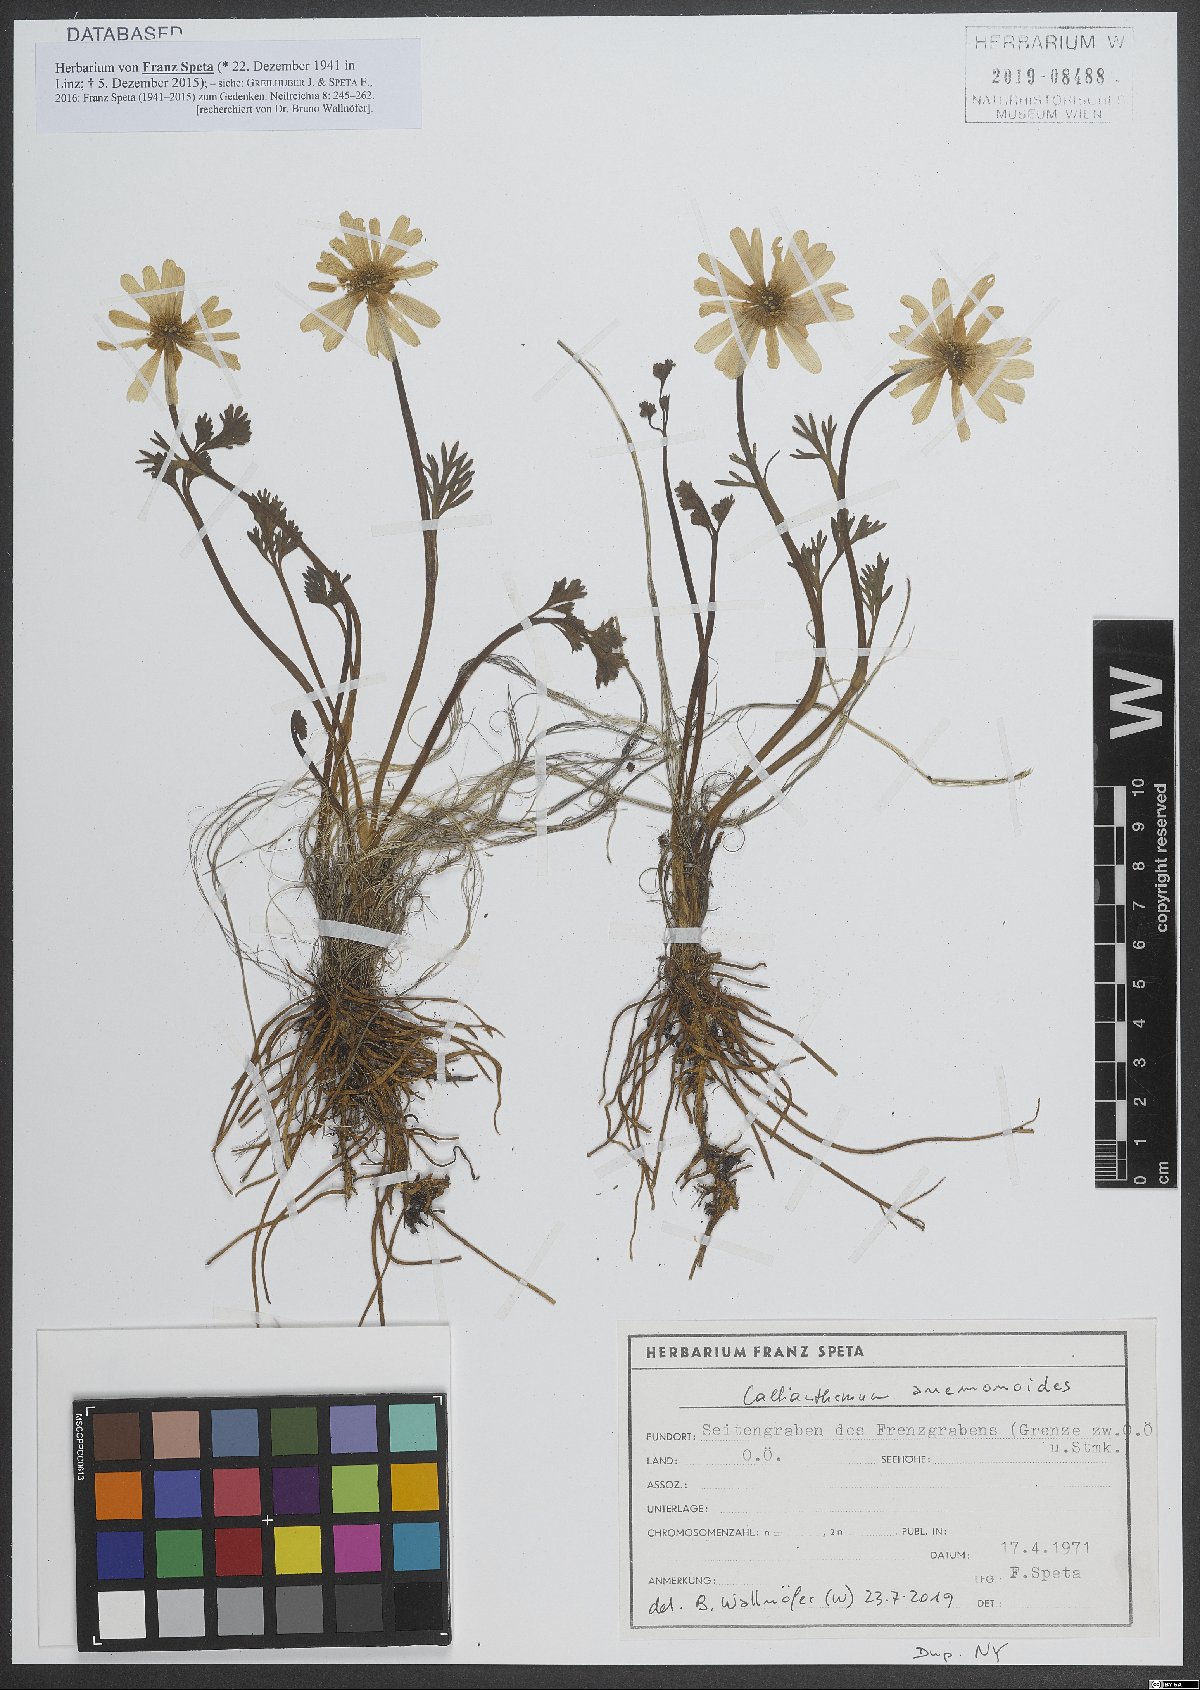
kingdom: Plantae
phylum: Tracheophyta
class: Magnoliopsida
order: Ranunculales
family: Ranunculaceae
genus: Callianthemum
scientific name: Callianthemum anemonoides
